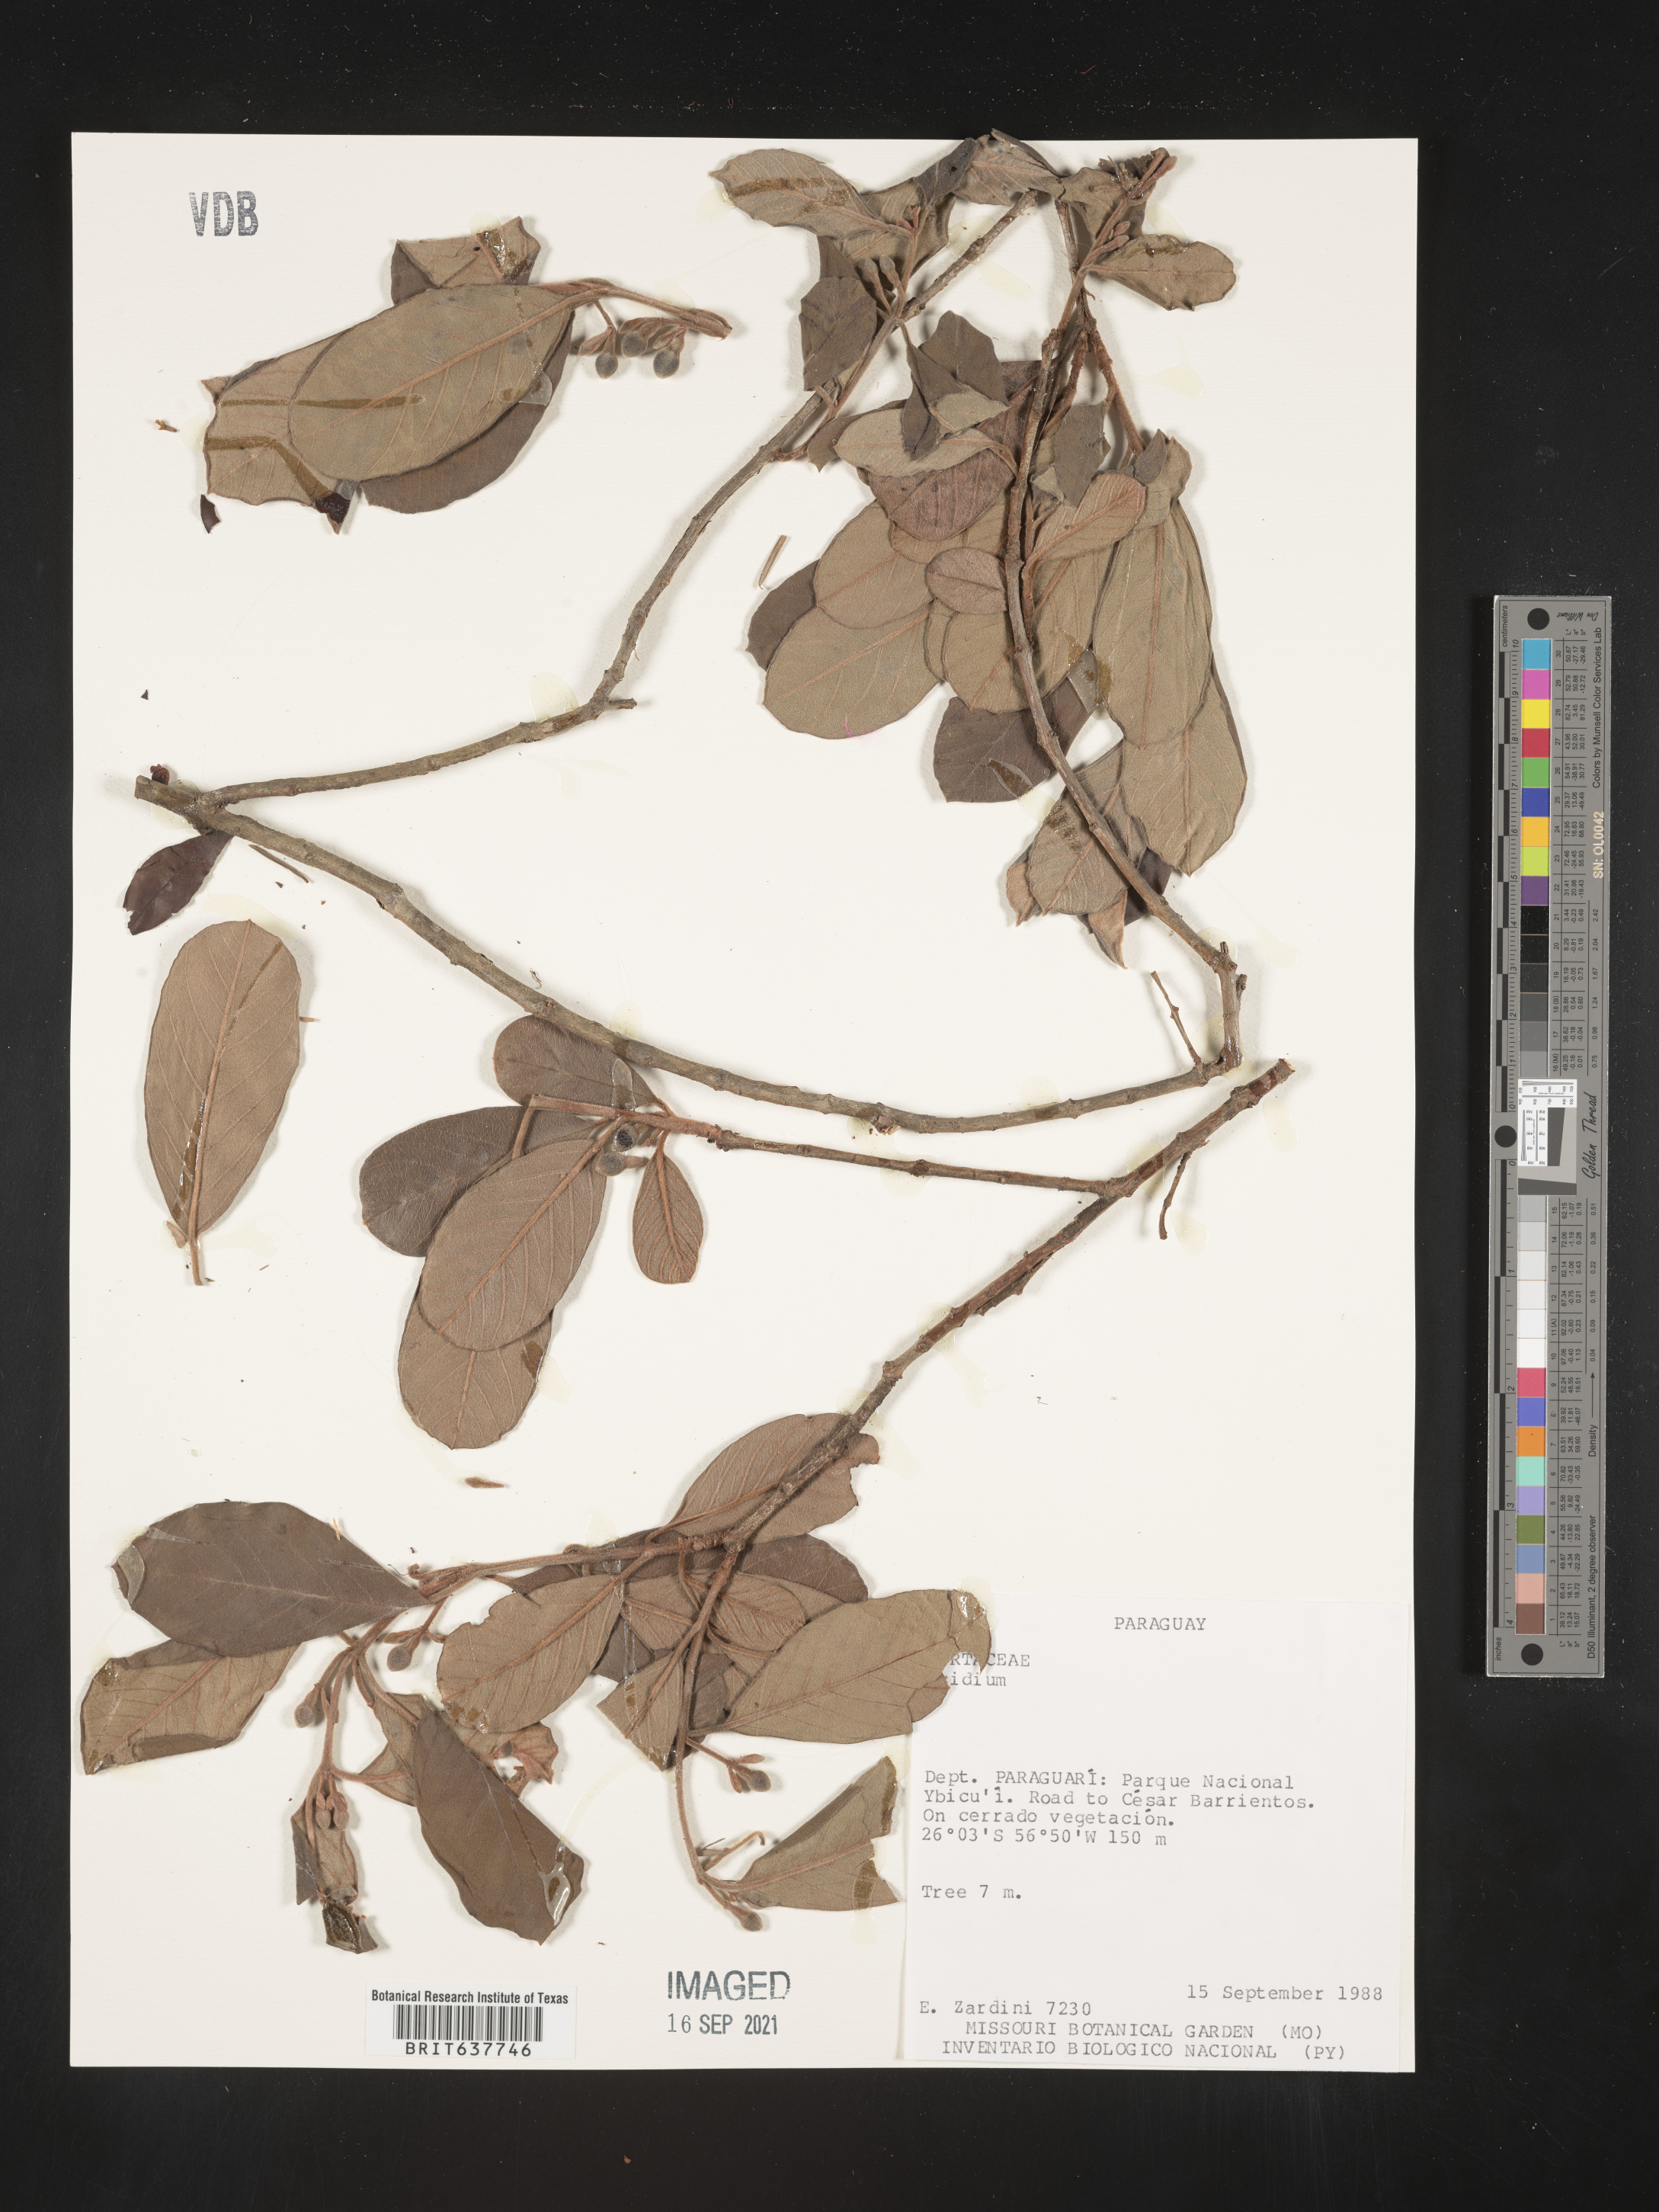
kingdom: Plantae
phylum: Tracheophyta
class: Magnoliopsida
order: Myrtales
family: Myrtaceae
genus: Psidium
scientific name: Psidium
